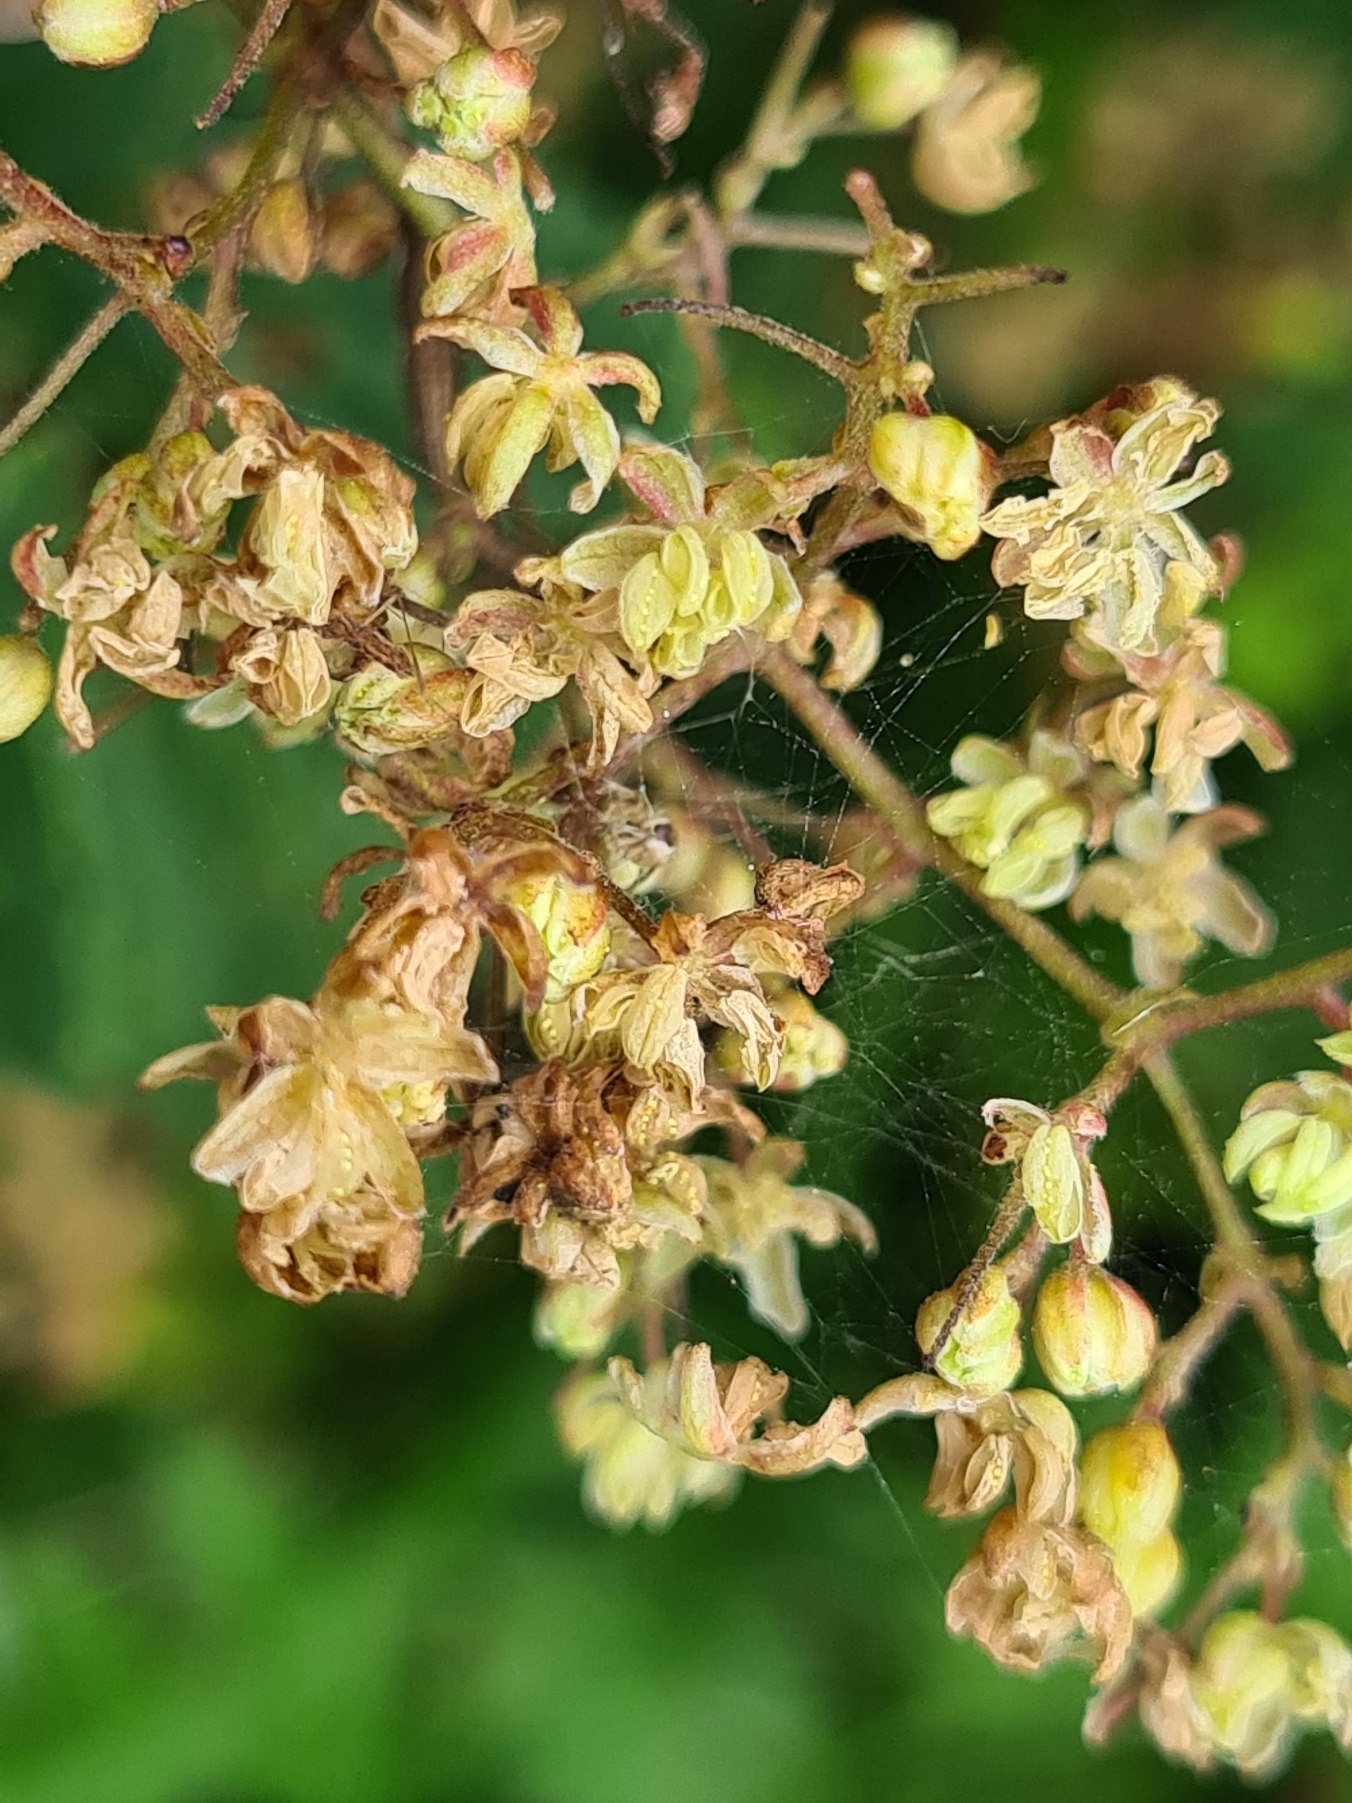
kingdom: Plantae
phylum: Tracheophyta
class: Magnoliopsida
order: Rosales
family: Cannabaceae
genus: Humulus
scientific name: Humulus lupulus
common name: Humle
